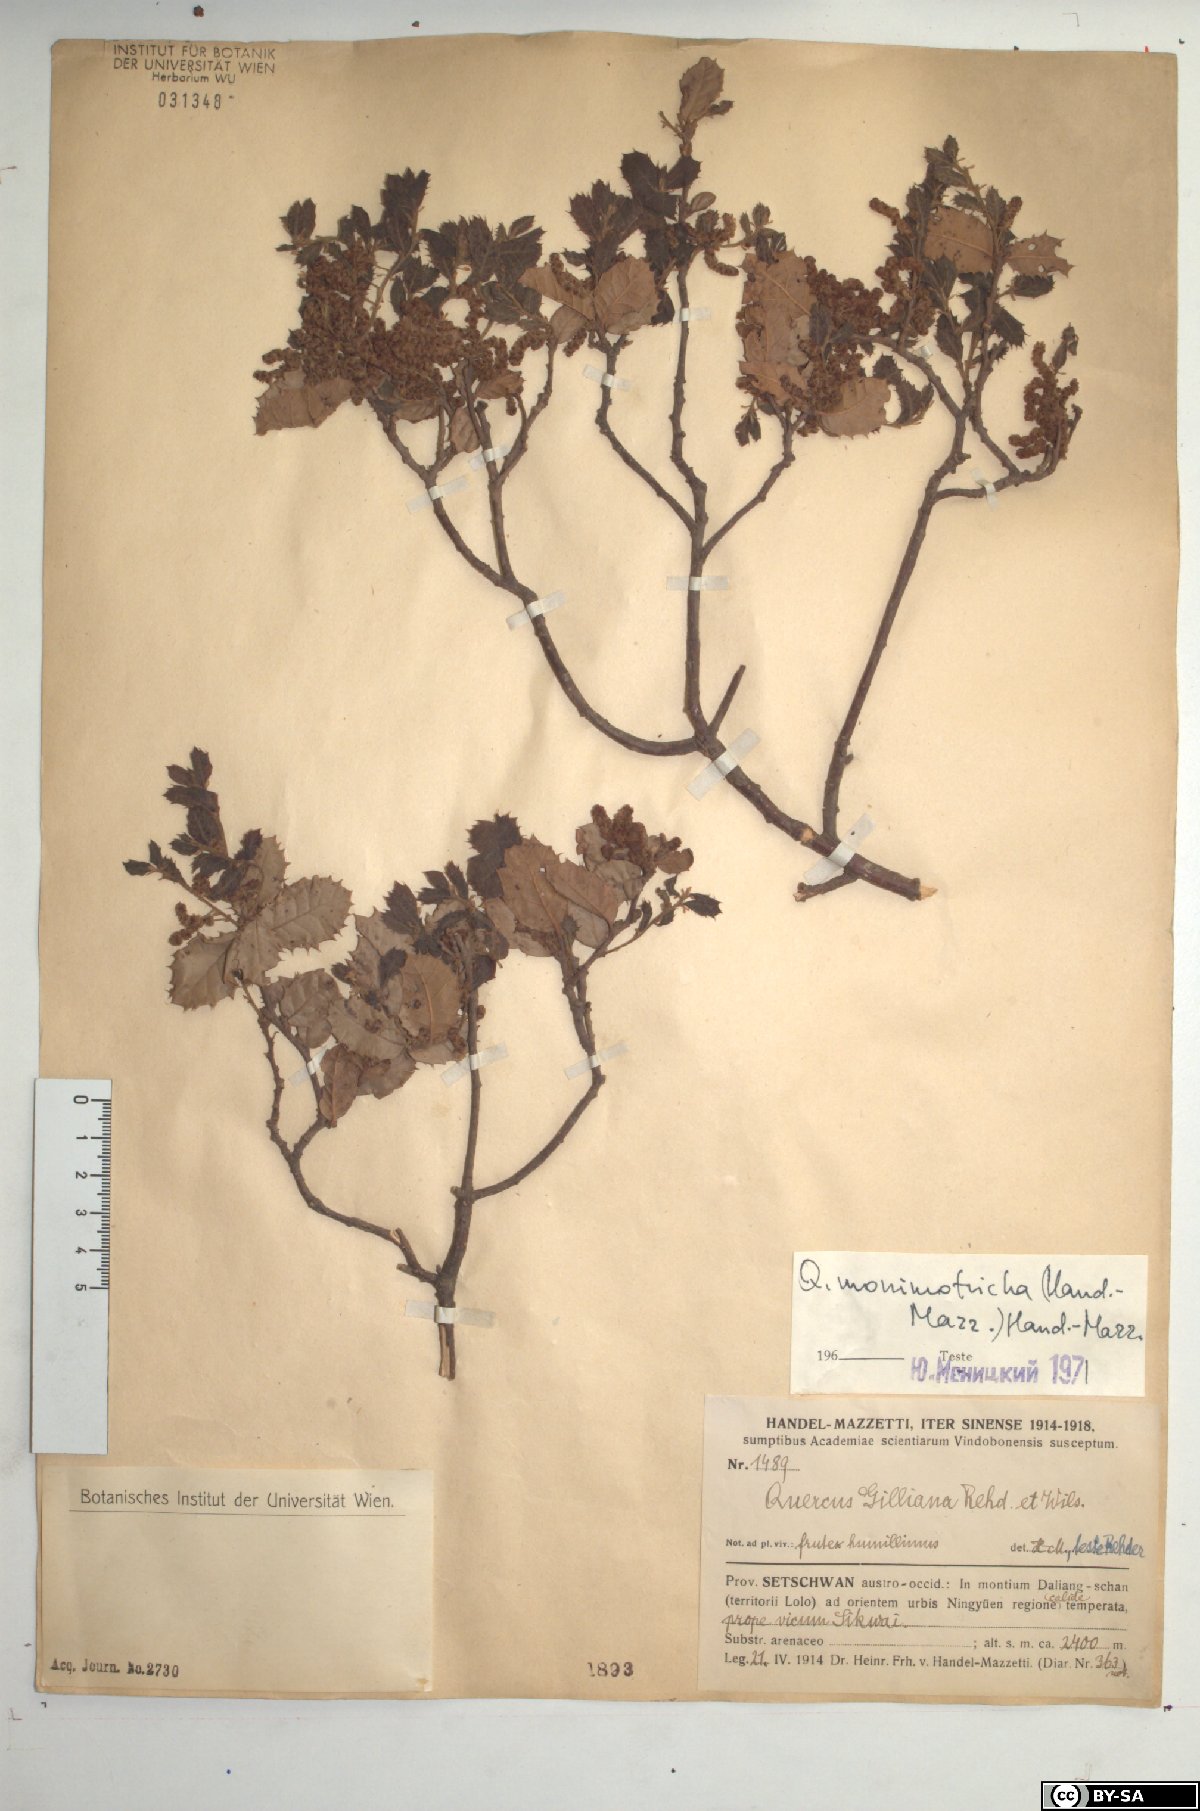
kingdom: Plantae
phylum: Tracheophyta
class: Magnoliopsida
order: Fagales
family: Fagaceae
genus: Quercus
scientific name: Quercus monimotricha
